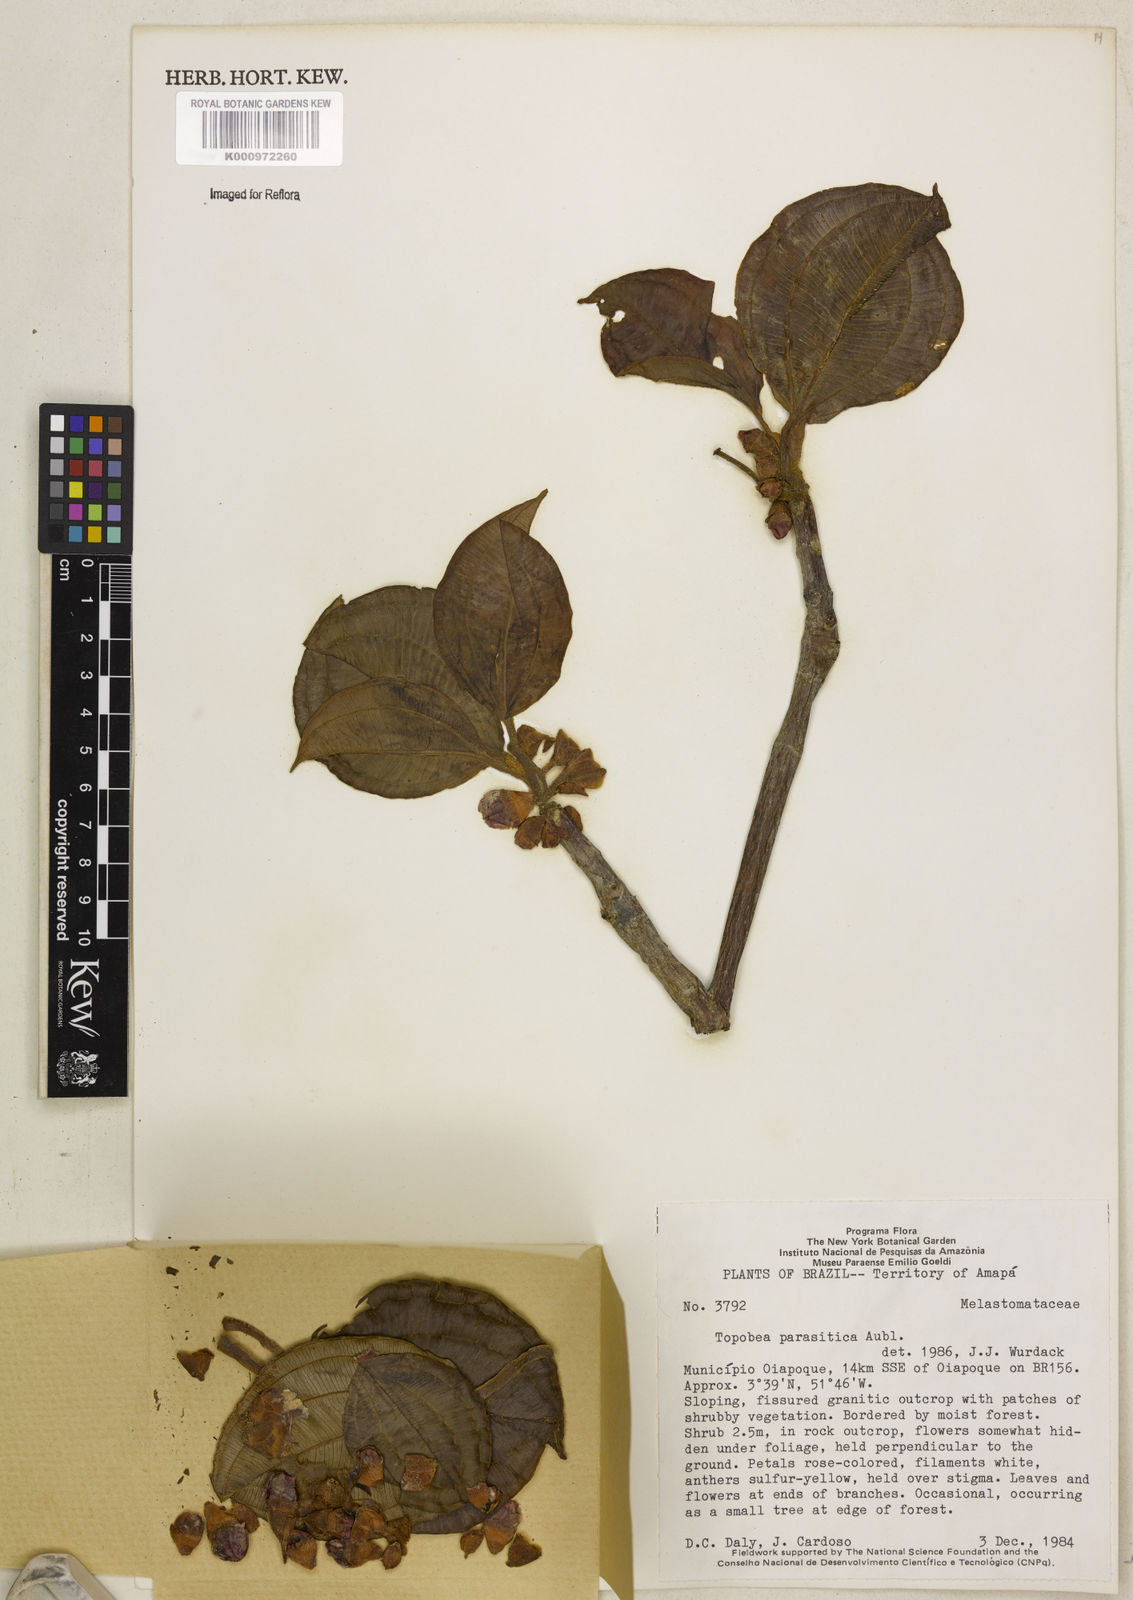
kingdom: Plantae
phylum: Tracheophyta
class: Magnoliopsida
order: Myrtales
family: Melastomataceae
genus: Blakea
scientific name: Blakea parasitica
